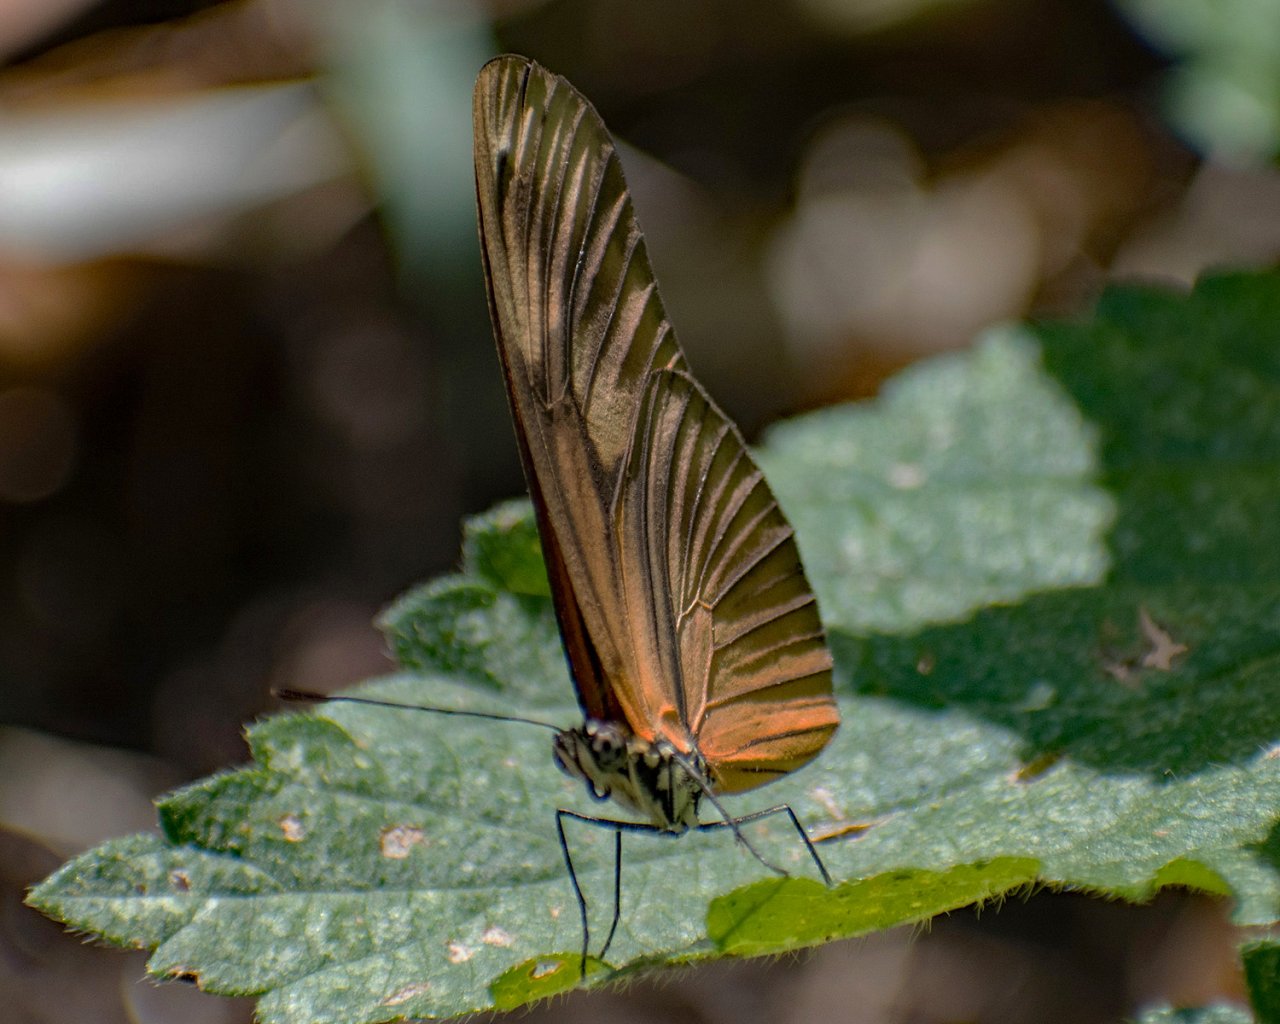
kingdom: Animalia
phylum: Arthropoda
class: Insecta
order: Lepidoptera
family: Nymphalidae
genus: Heliconius
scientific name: Heliconius aliphera
